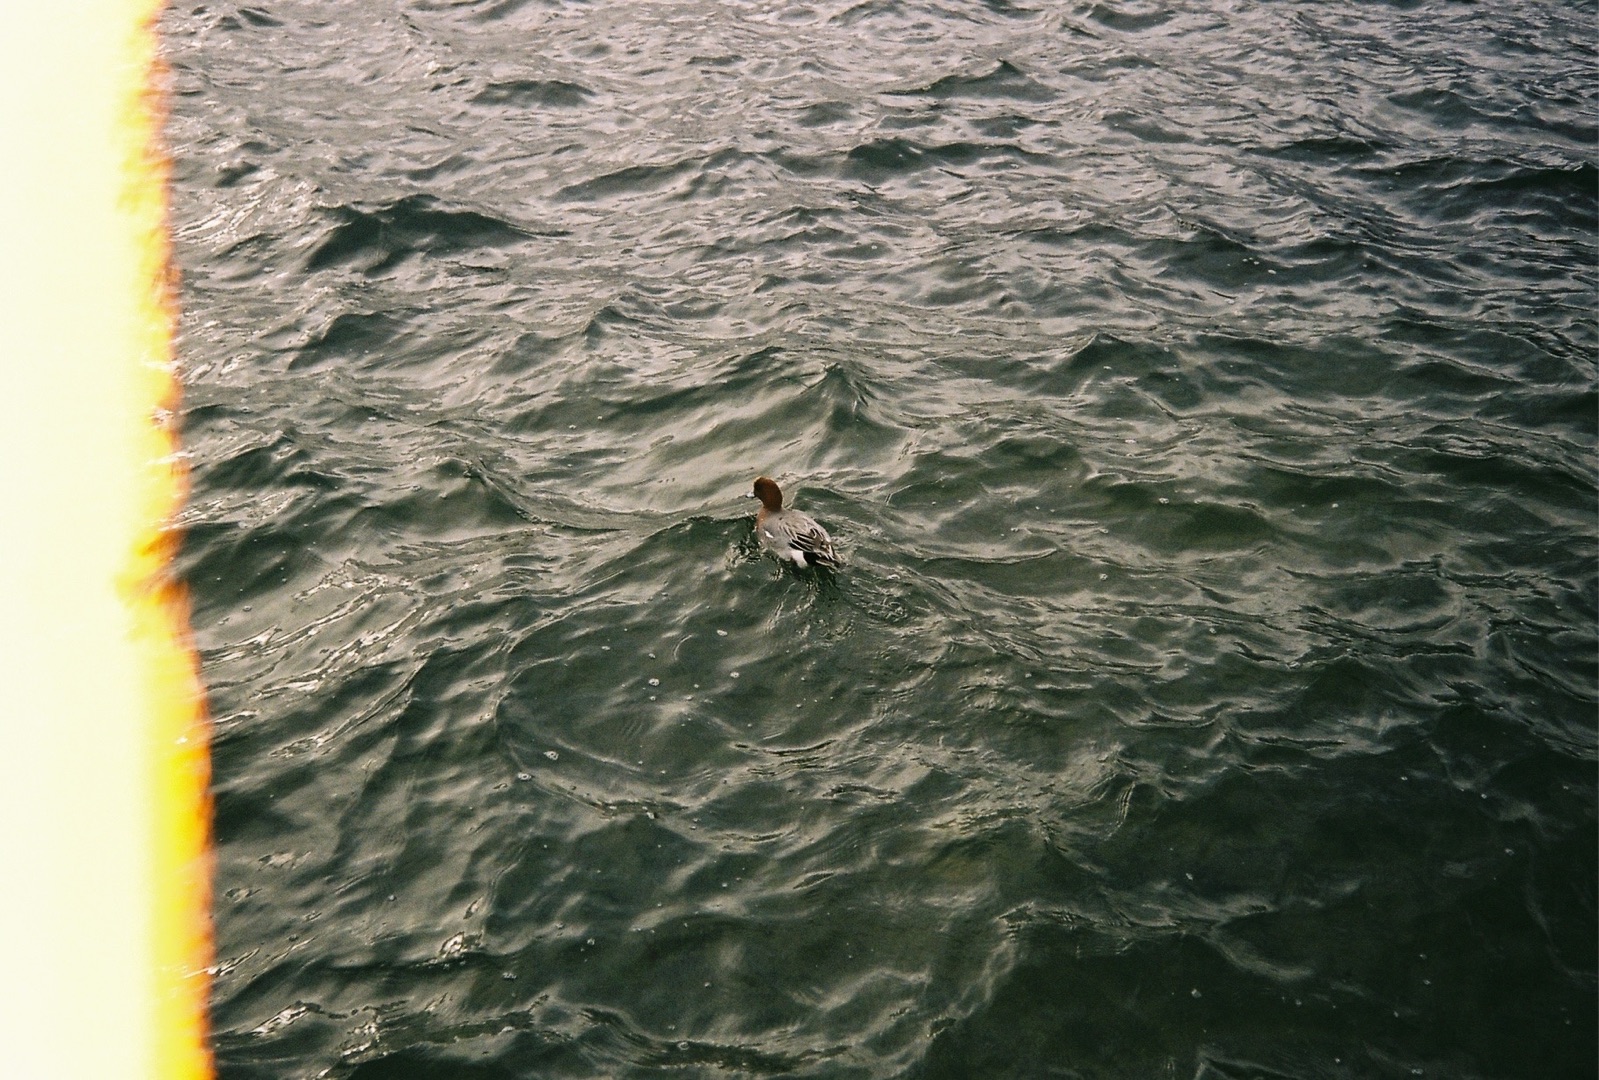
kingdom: Animalia
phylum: Chordata
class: Aves
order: Anseriformes
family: Anatidae
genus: Mareca
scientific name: Mareca penelope
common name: Pibeand
